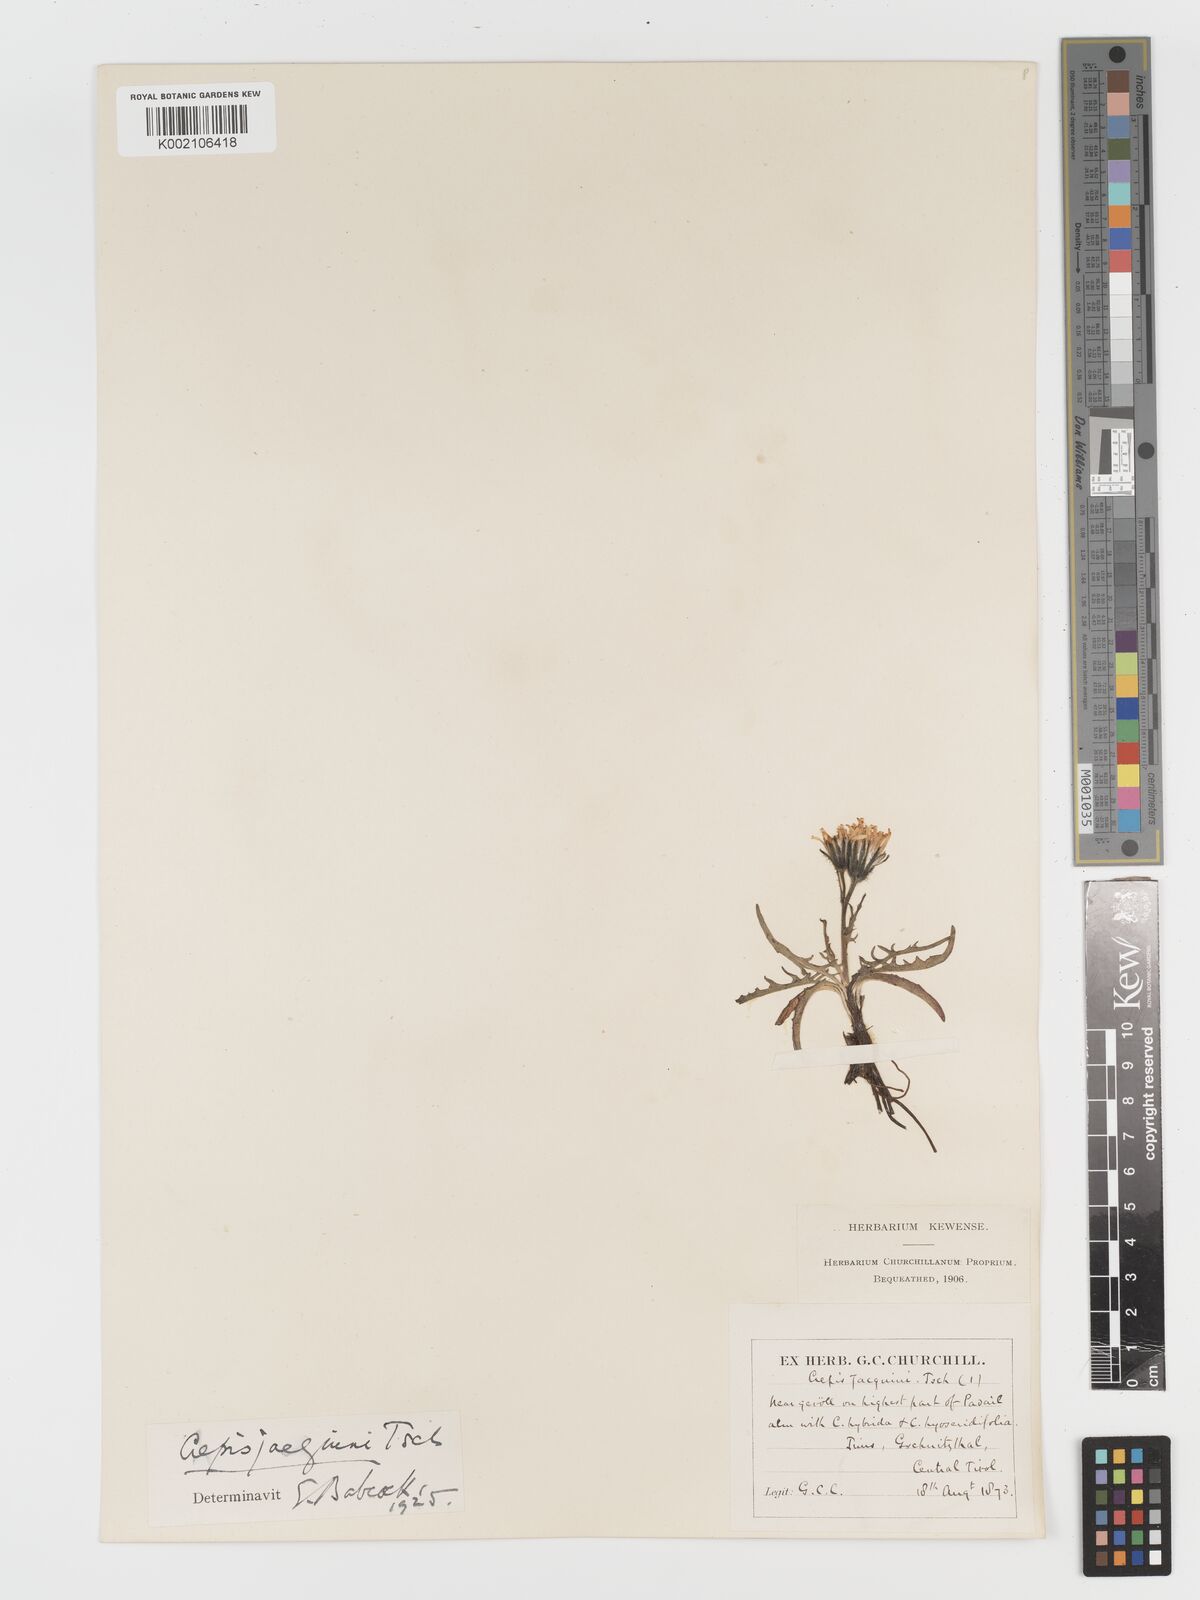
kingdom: Plantae
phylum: Tracheophyta
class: Magnoliopsida
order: Asterales
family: Asteraceae
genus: Crepis
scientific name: Crepis jacquinii
